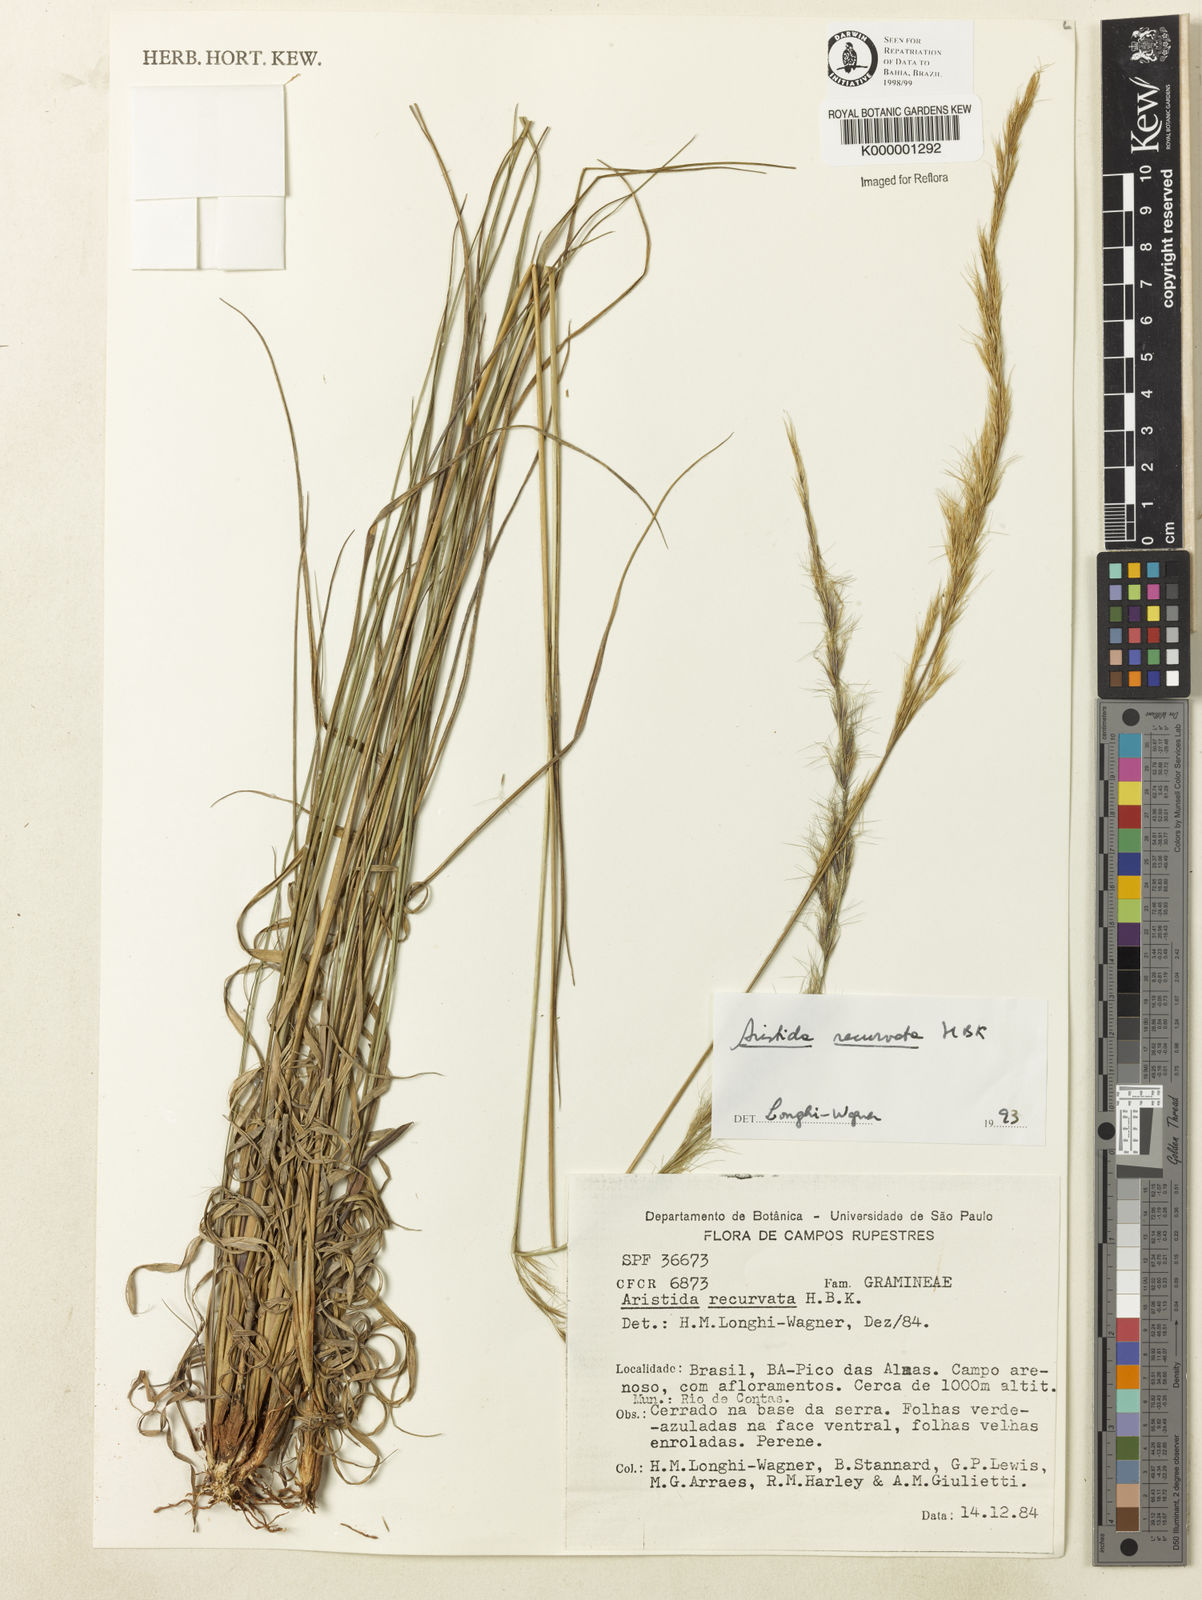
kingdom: Plantae
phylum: Tracheophyta
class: Liliopsida
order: Poales
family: Poaceae
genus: Aristida
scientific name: Aristida recurvata
